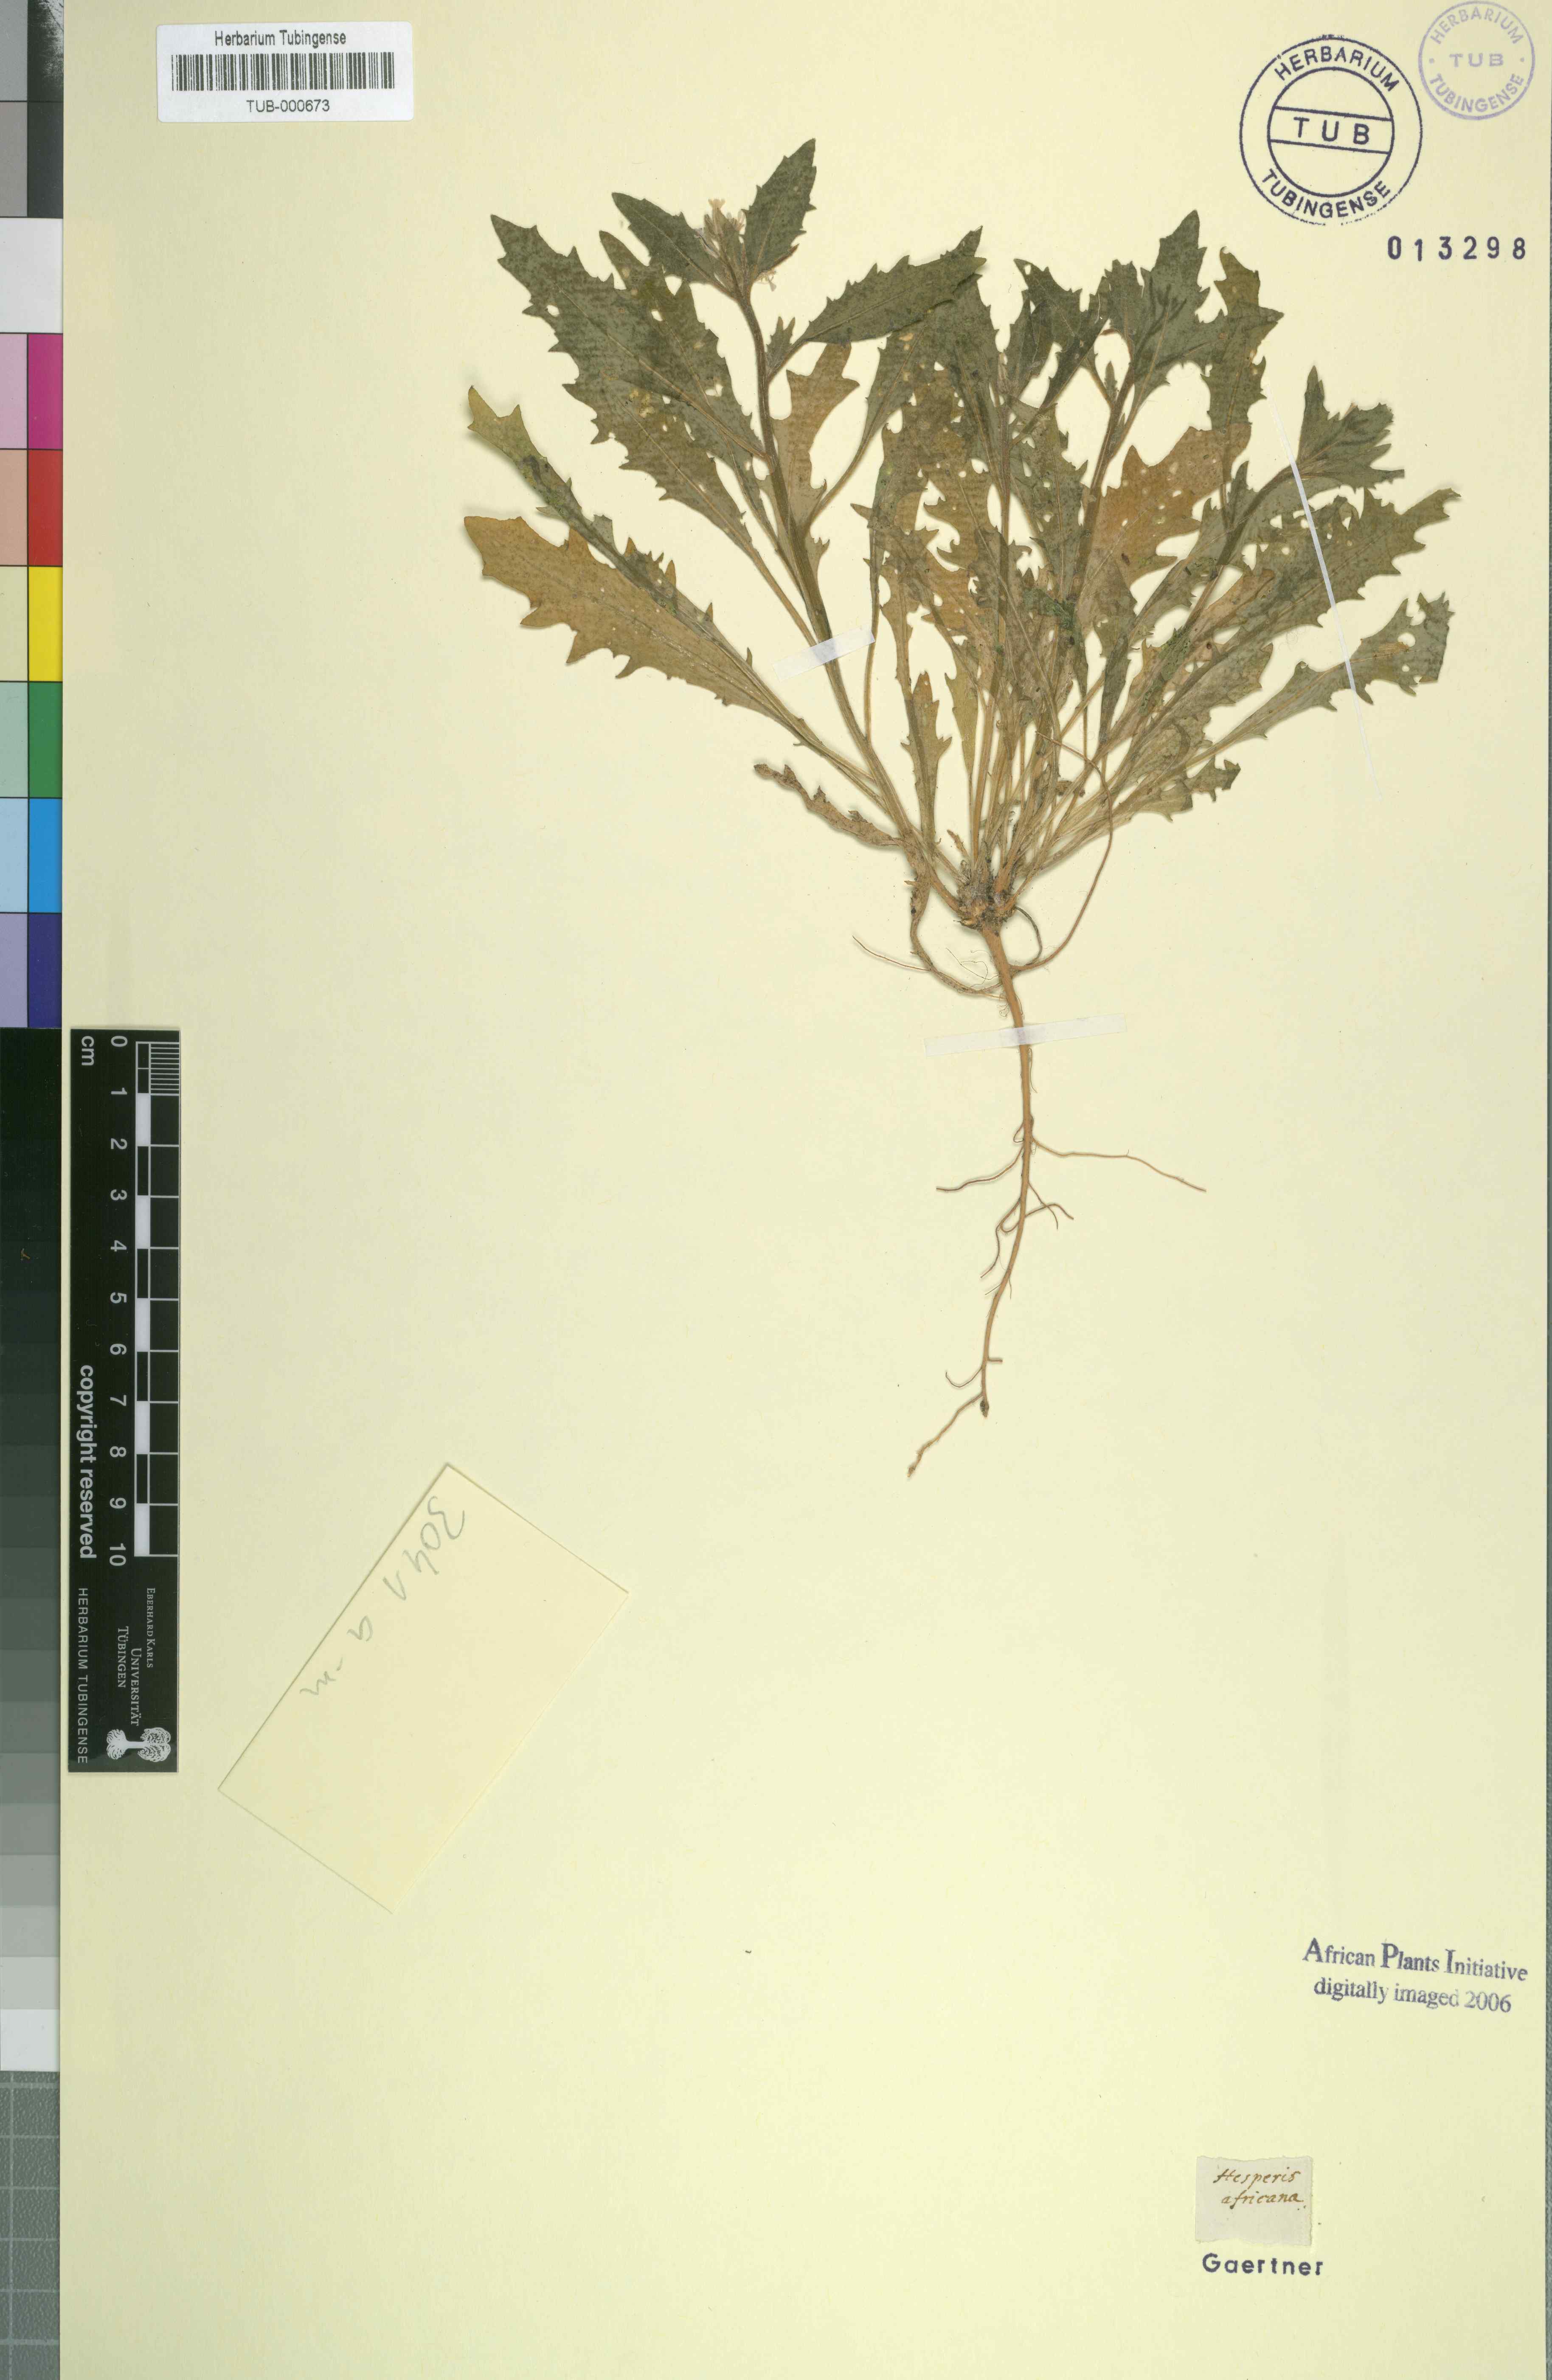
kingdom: Plantae
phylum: Tracheophyta
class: Magnoliopsida
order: Brassicales
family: Brassicaceae
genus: Strigosella
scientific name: Strigosella africana
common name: African mustard
